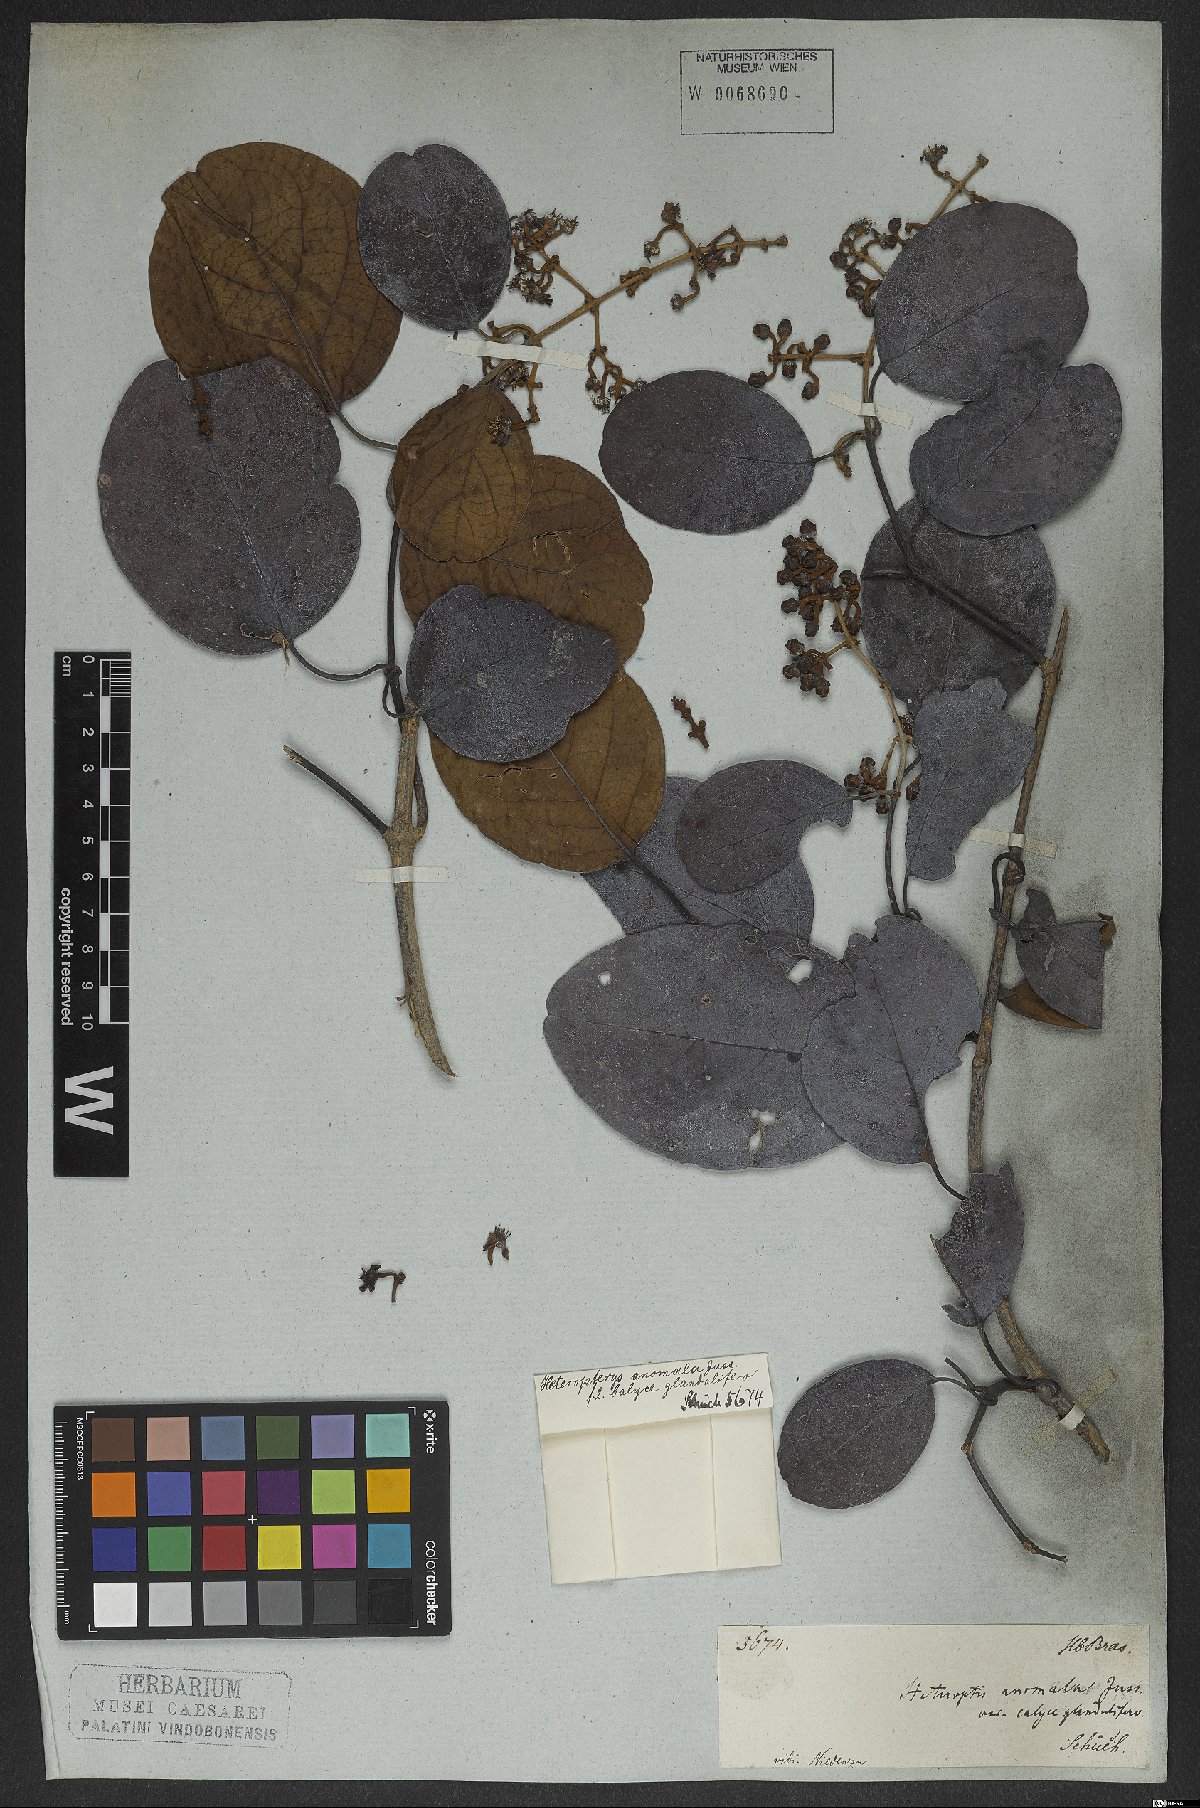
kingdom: Plantae
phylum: Tracheophyta
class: Magnoliopsida
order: Malpighiales
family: Malpighiaceae
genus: Heteropterys
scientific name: Heteropterys patens
